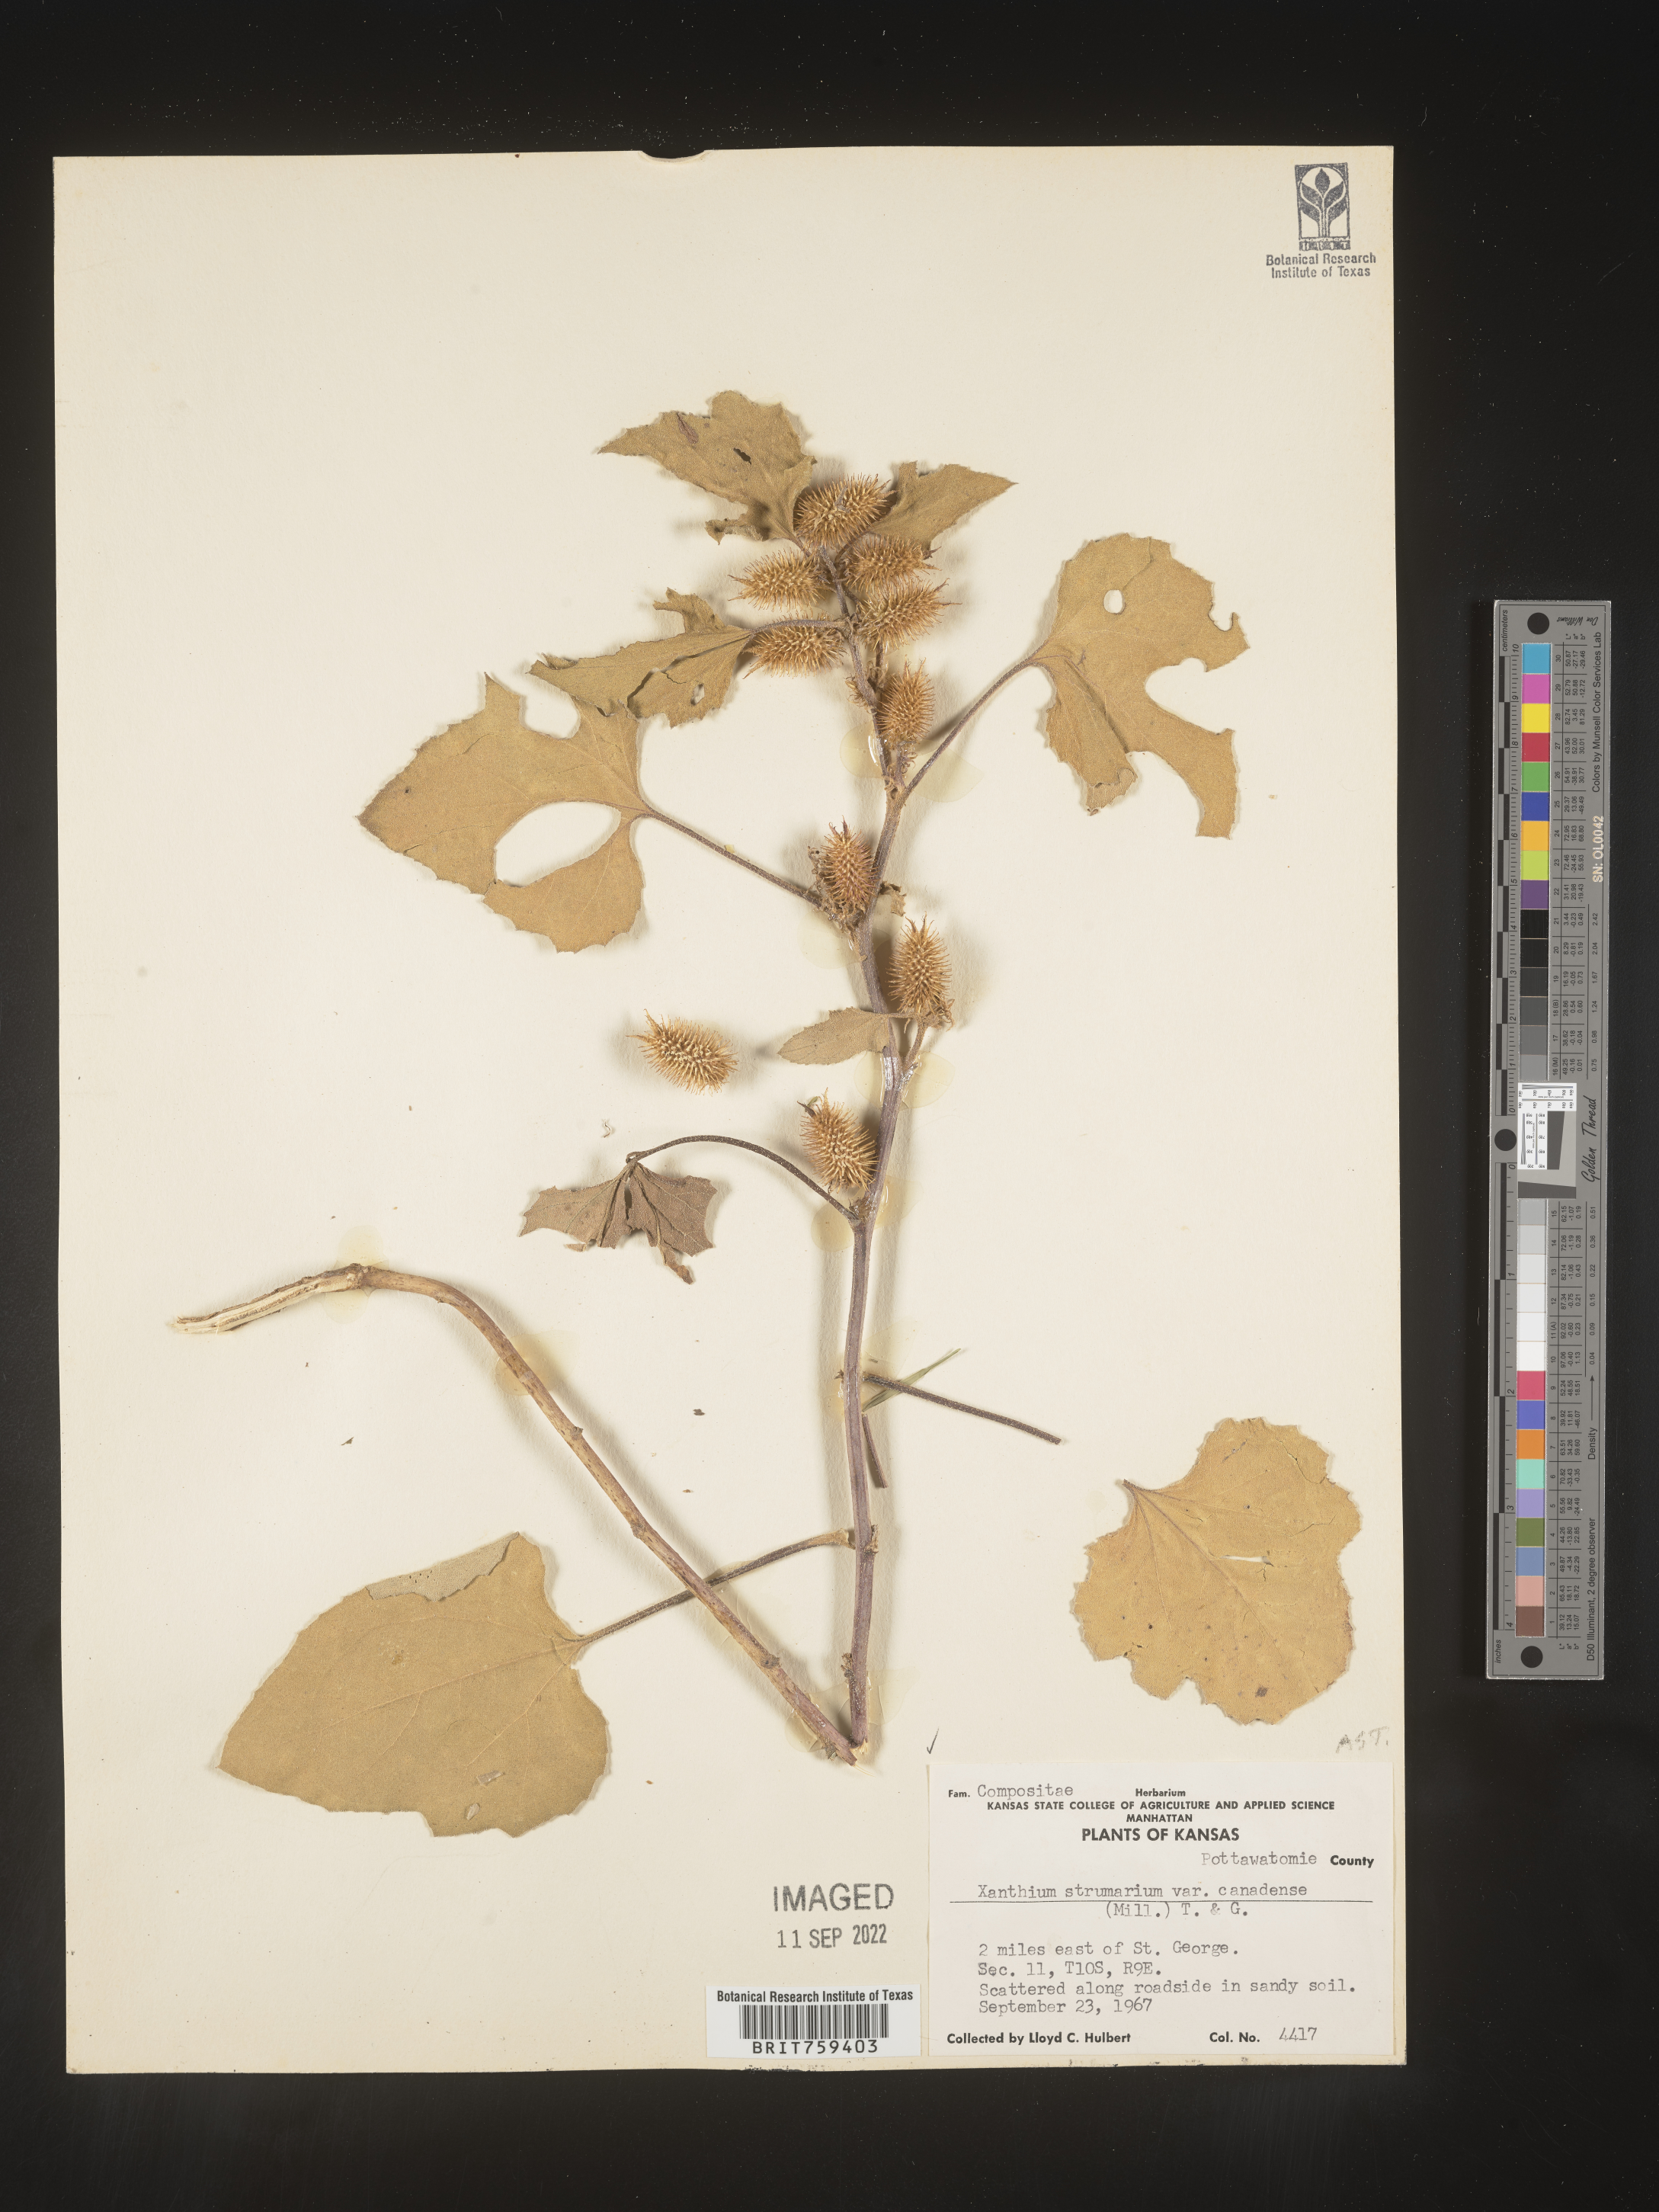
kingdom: Plantae
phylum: Tracheophyta
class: Magnoliopsida
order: Asterales
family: Asteraceae
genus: Xanthium
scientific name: Xanthium orientale
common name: Californian burr
